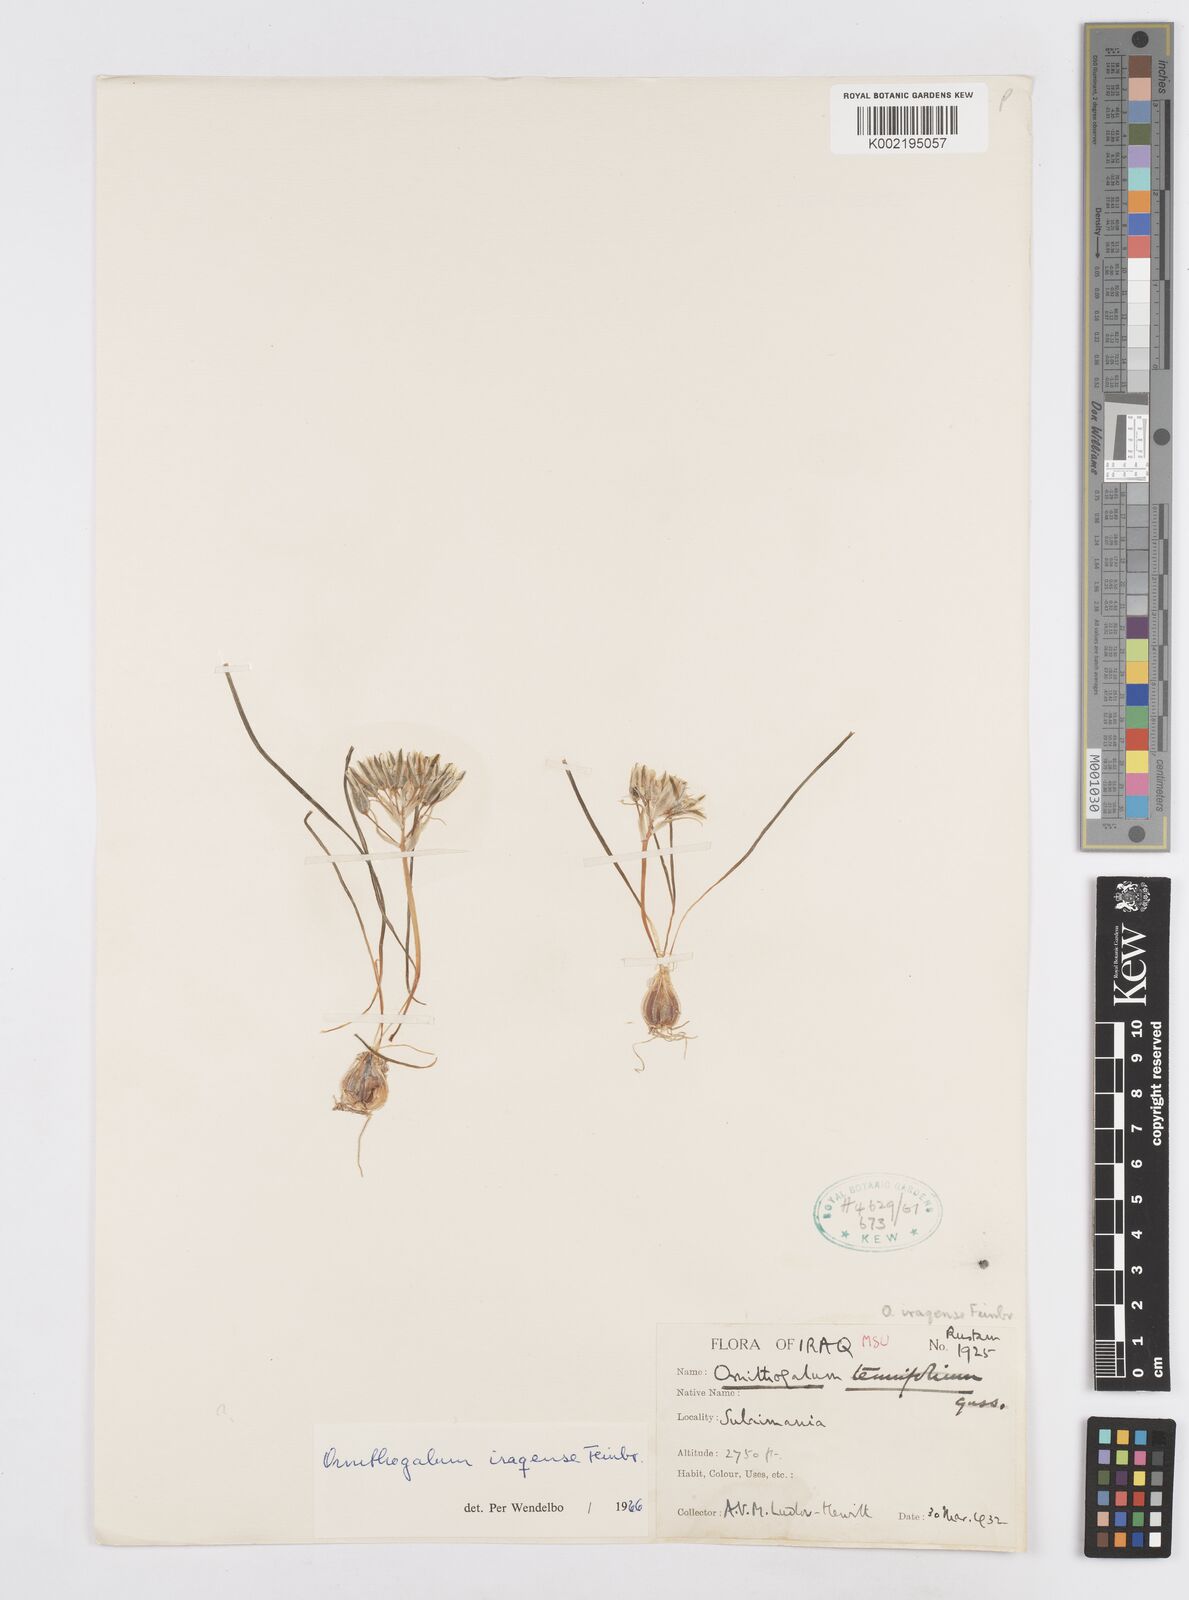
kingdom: Plantae
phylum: Tracheophyta
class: Liliopsida
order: Asparagales
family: Asparagaceae
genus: Ornithogalum
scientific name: Ornithogalum iraqense
